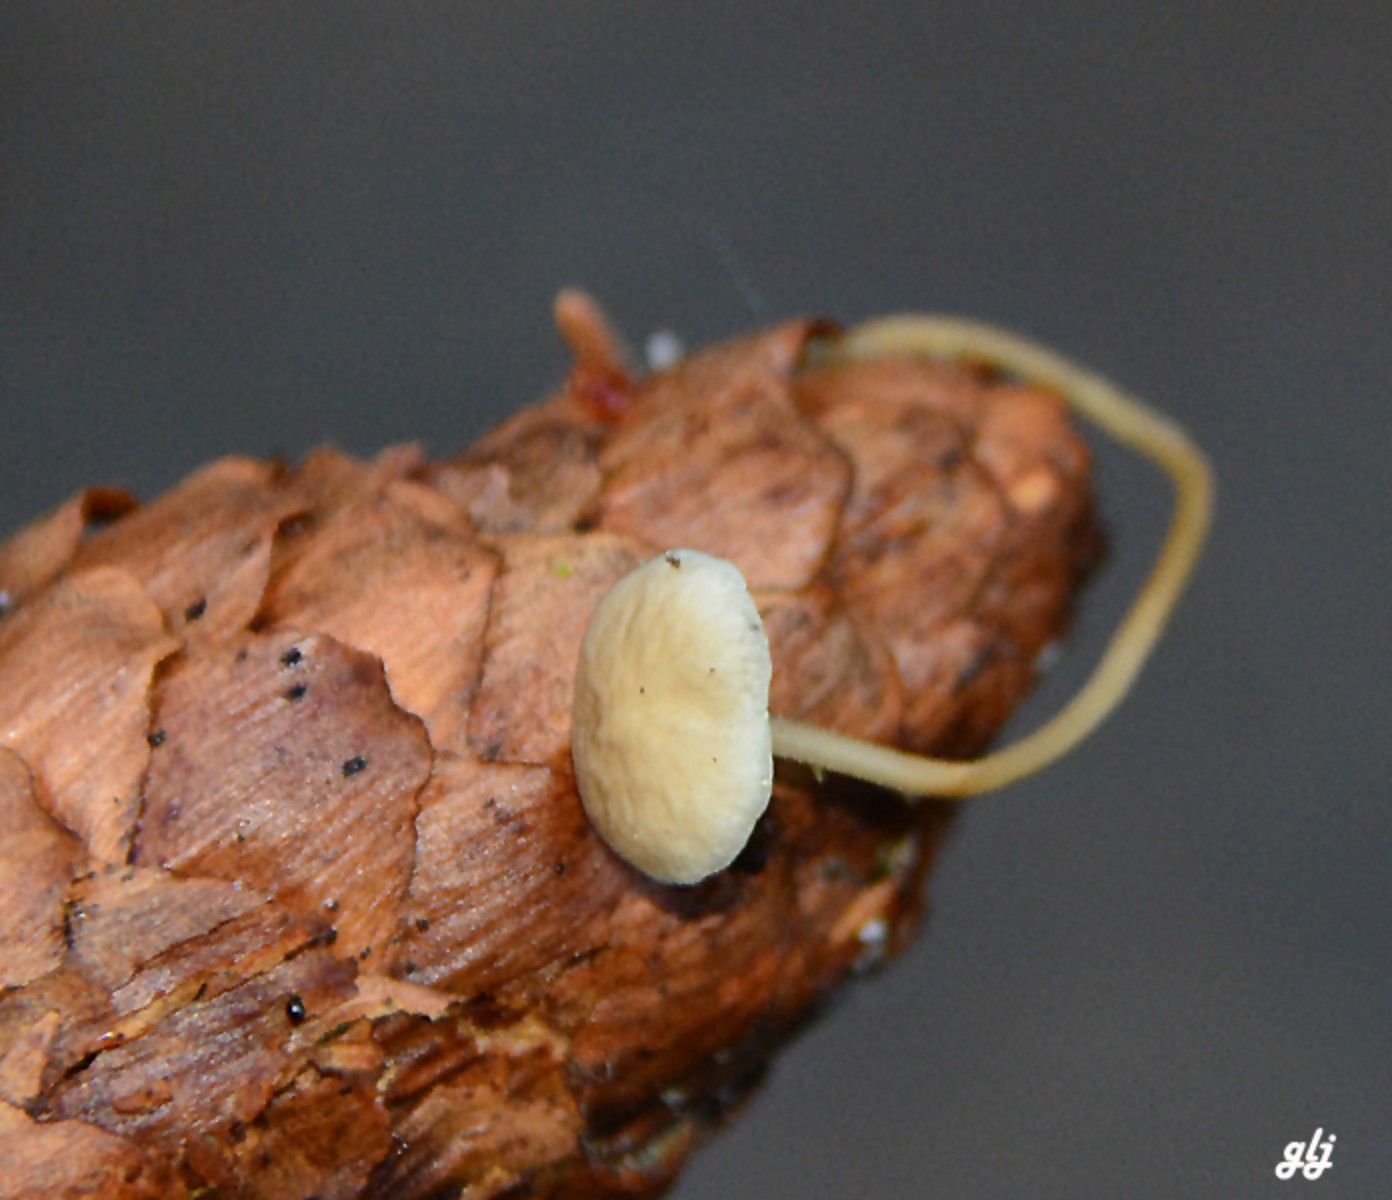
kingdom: Fungi
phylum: Basidiomycota
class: Agaricomycetes
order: Agaricales
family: Physalacriaceae
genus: Strobilurus
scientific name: Strobilurus esculentus
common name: gran-koglehat
